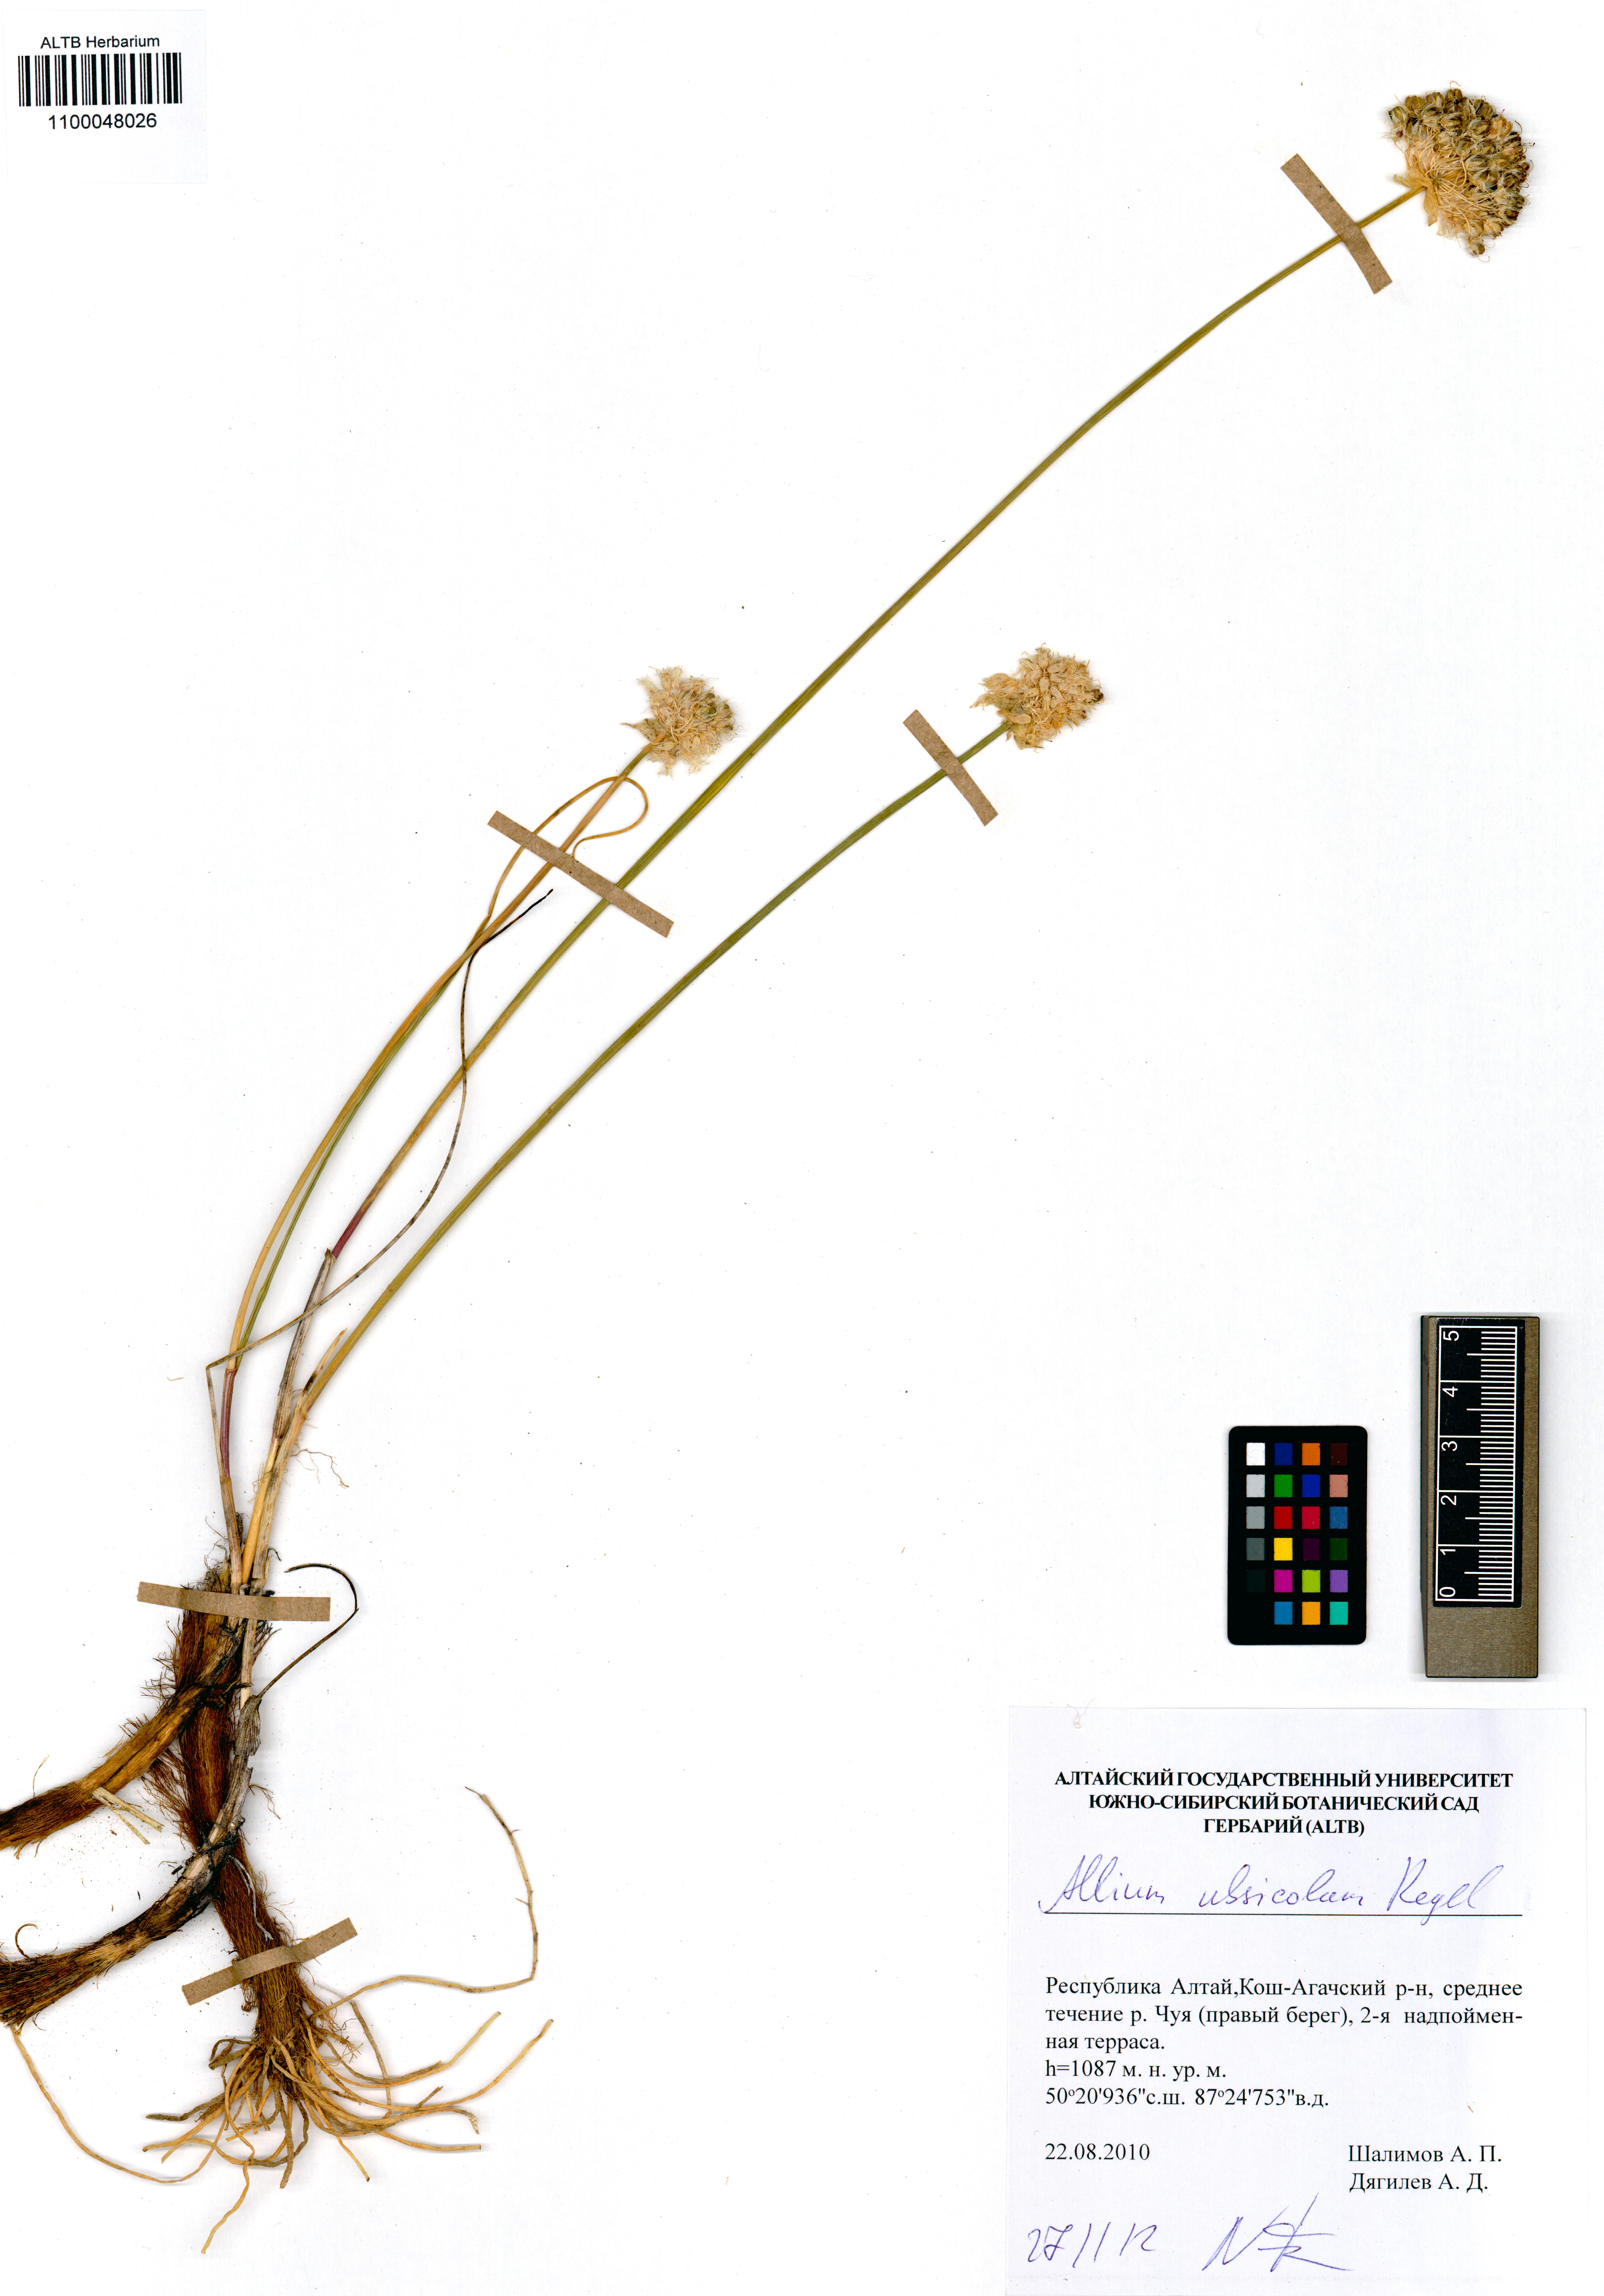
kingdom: Plantae
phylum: Tracheophyta
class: Liliopsida
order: Asparagales
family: Amaryllidaceae
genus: Allium
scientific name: Allium ubsicola
